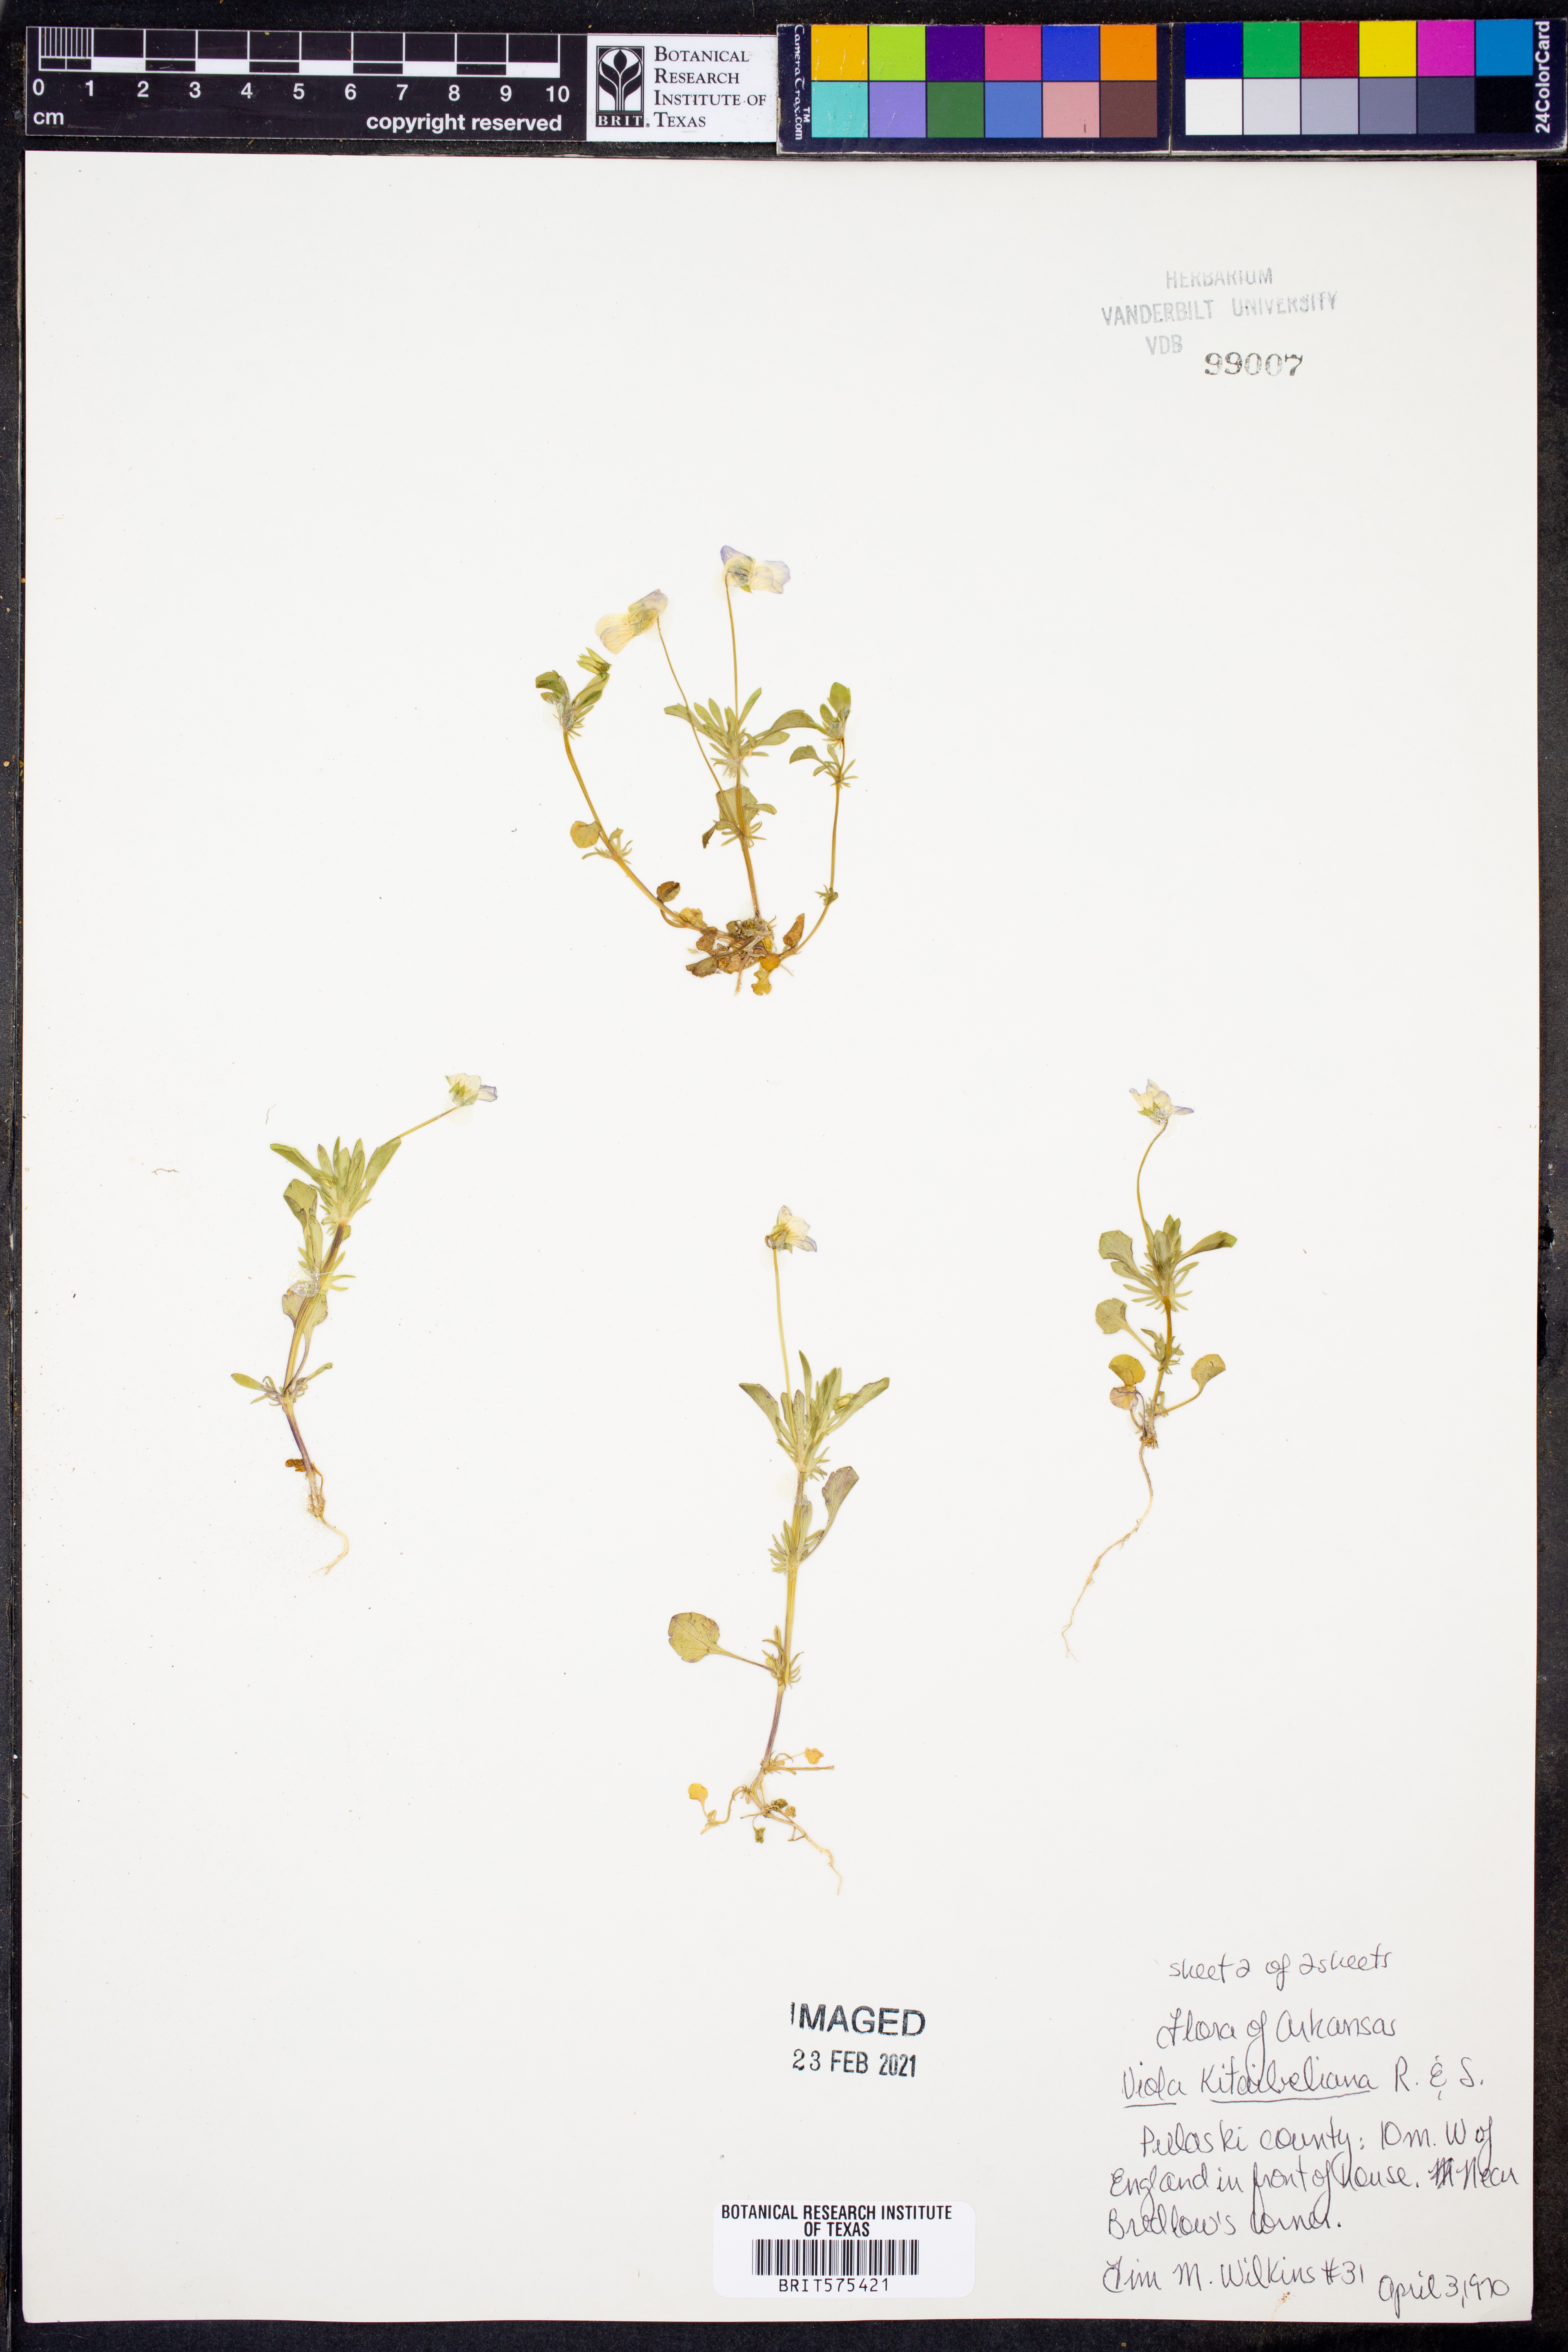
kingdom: Plantae
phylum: Tracheophyta
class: Magnoliopsida
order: Malpighiales
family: Violaceae
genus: Viola
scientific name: Viola kitaibeliana
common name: Dwarf pansy
